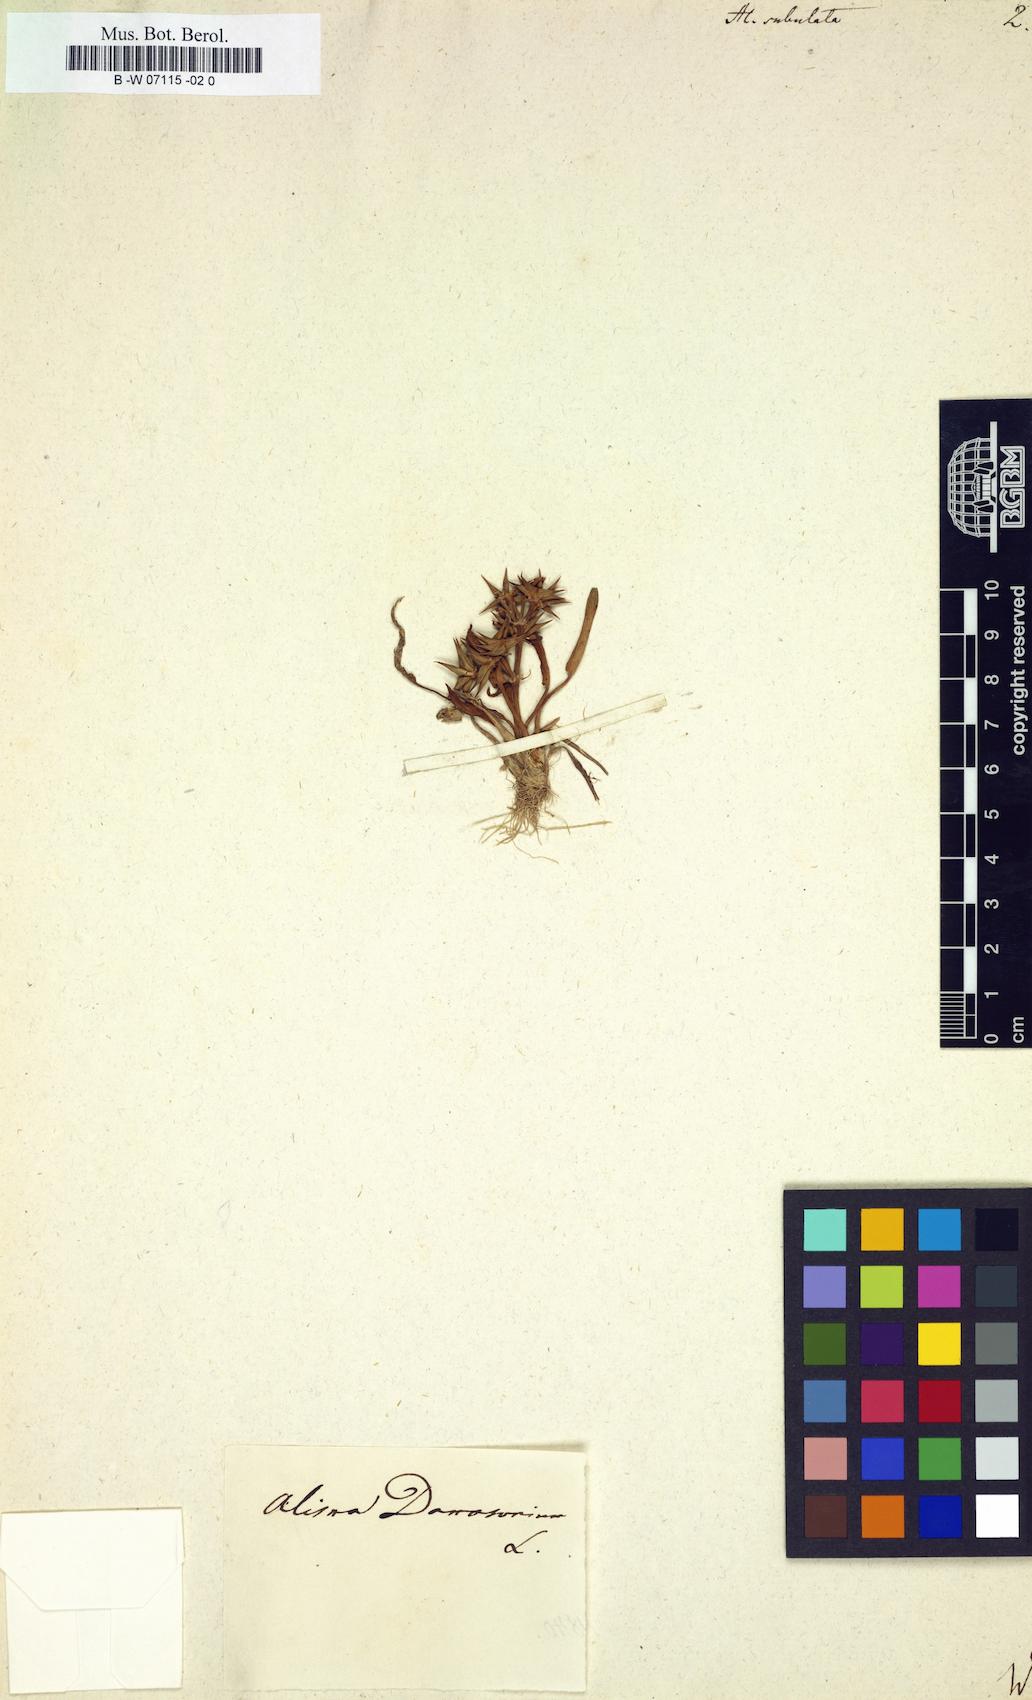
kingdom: Plantae
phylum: Tracheophyta
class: Liliopsida
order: Alismatales
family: Alismataceae
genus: Alisma
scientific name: Alisma subulatum
